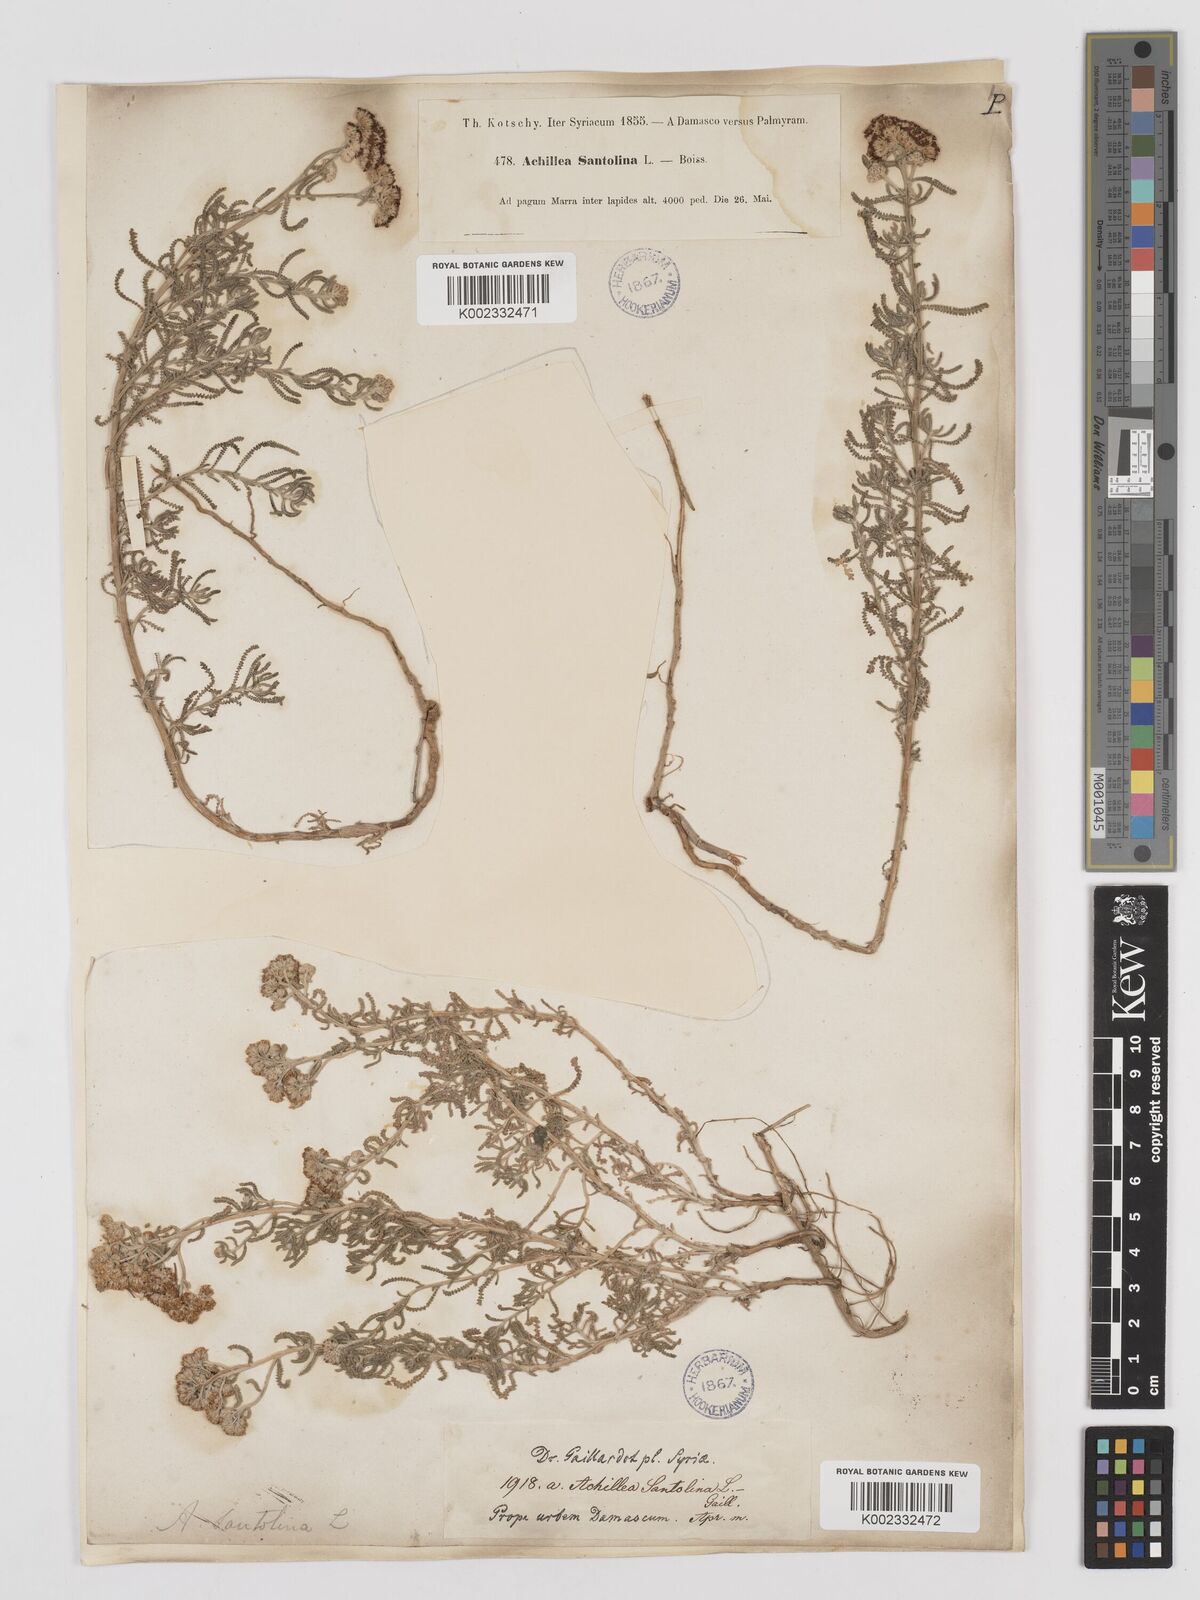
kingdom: Plantae
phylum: Tracheophyta
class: Magnoliopsida
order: Asterales
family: Asteraceae
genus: Achillea
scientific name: Achillea tenuifolia
